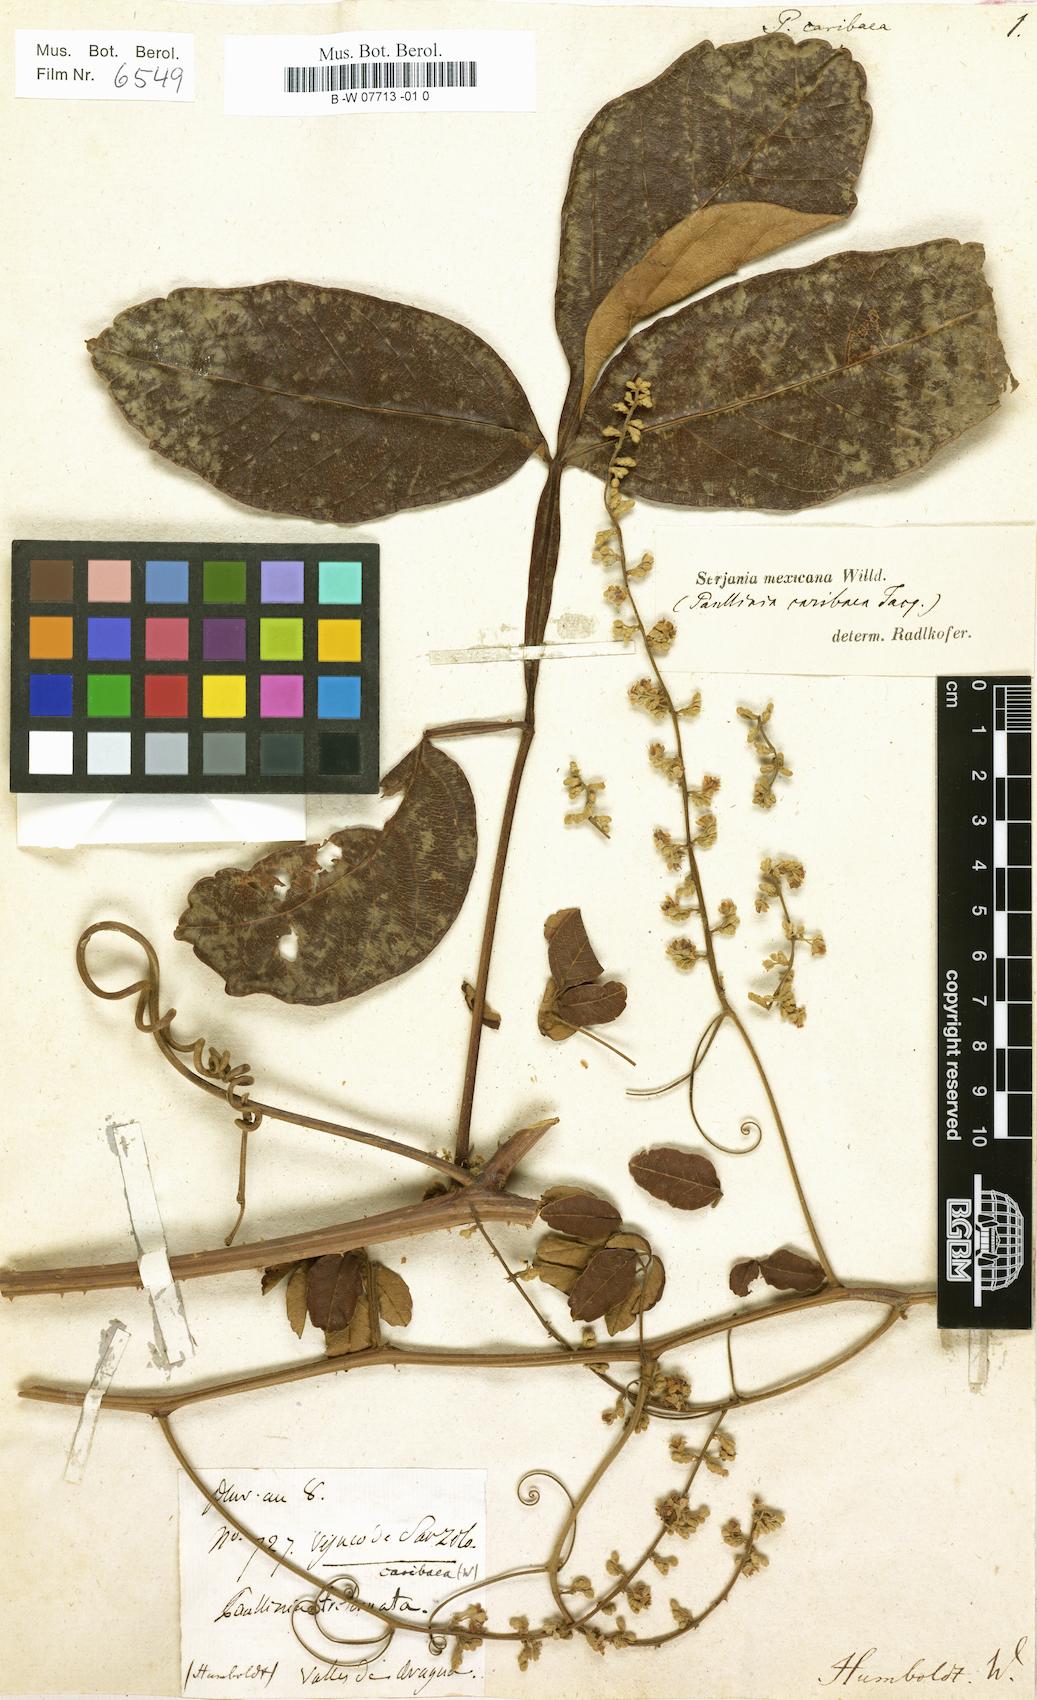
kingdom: Plantae
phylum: Tracheophyta
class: Magnoliopsida
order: Sapindales
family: Sapindaceae
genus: Serjania
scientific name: Serjania mexicana
